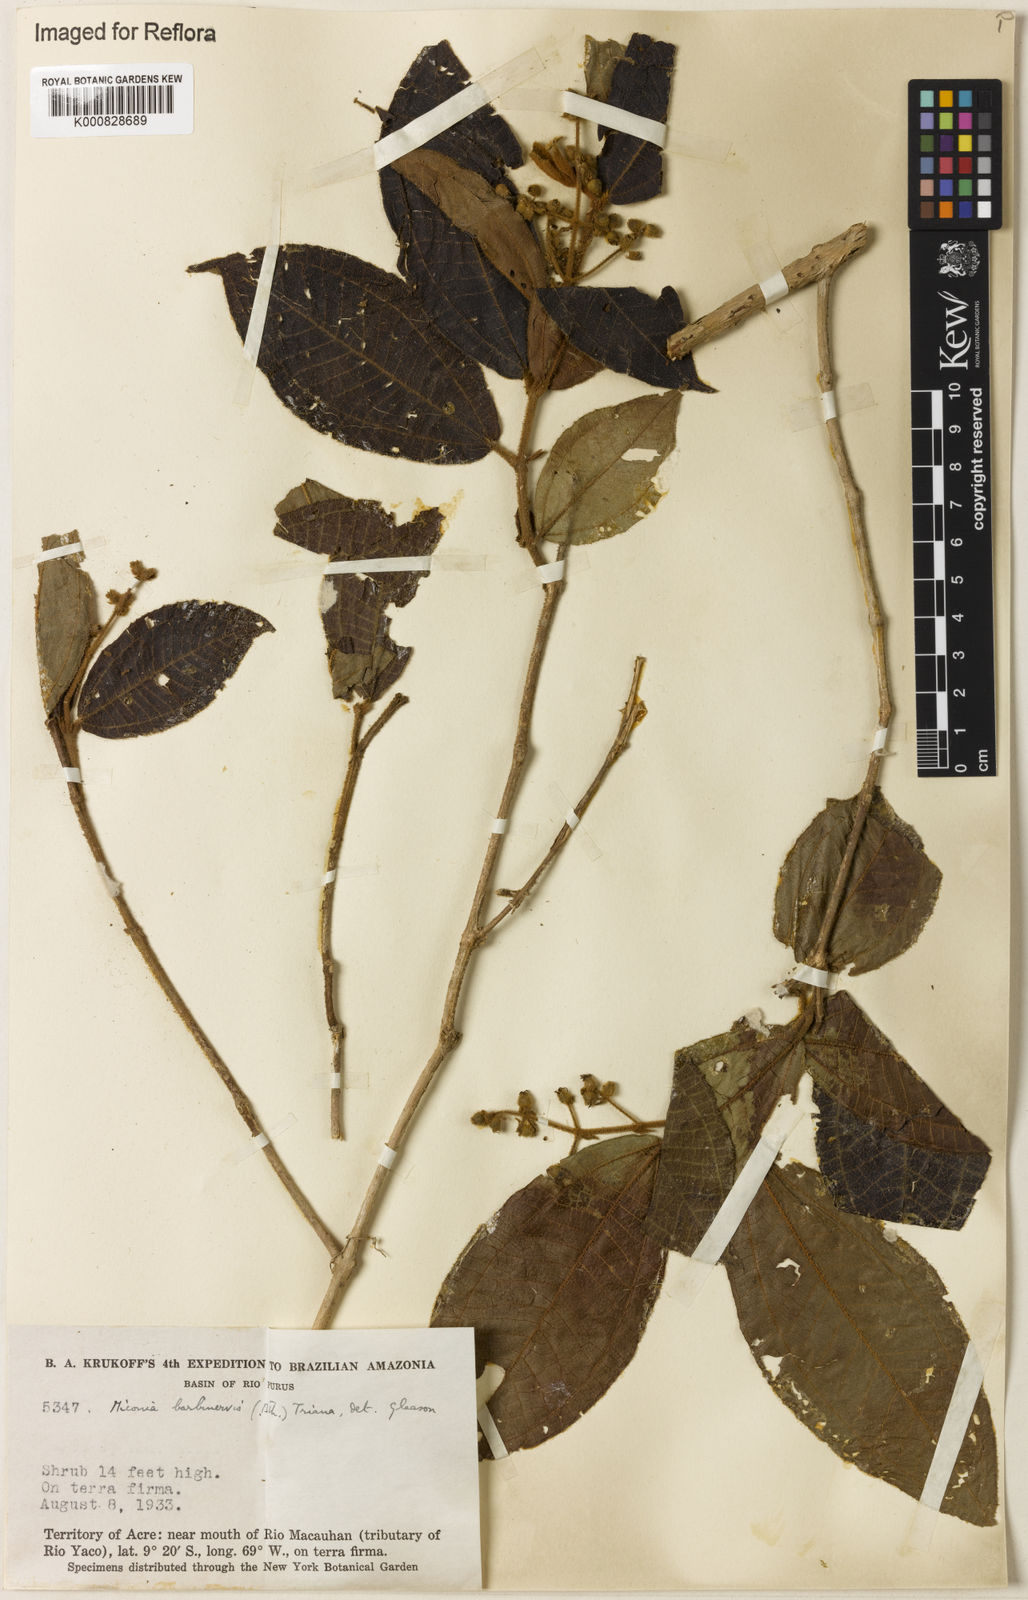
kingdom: Plantae
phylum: Tracheophyta
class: Magnoliopsida
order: Myrtales
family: Melastomataceae
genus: Miconia
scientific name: Miconia barbinervis
